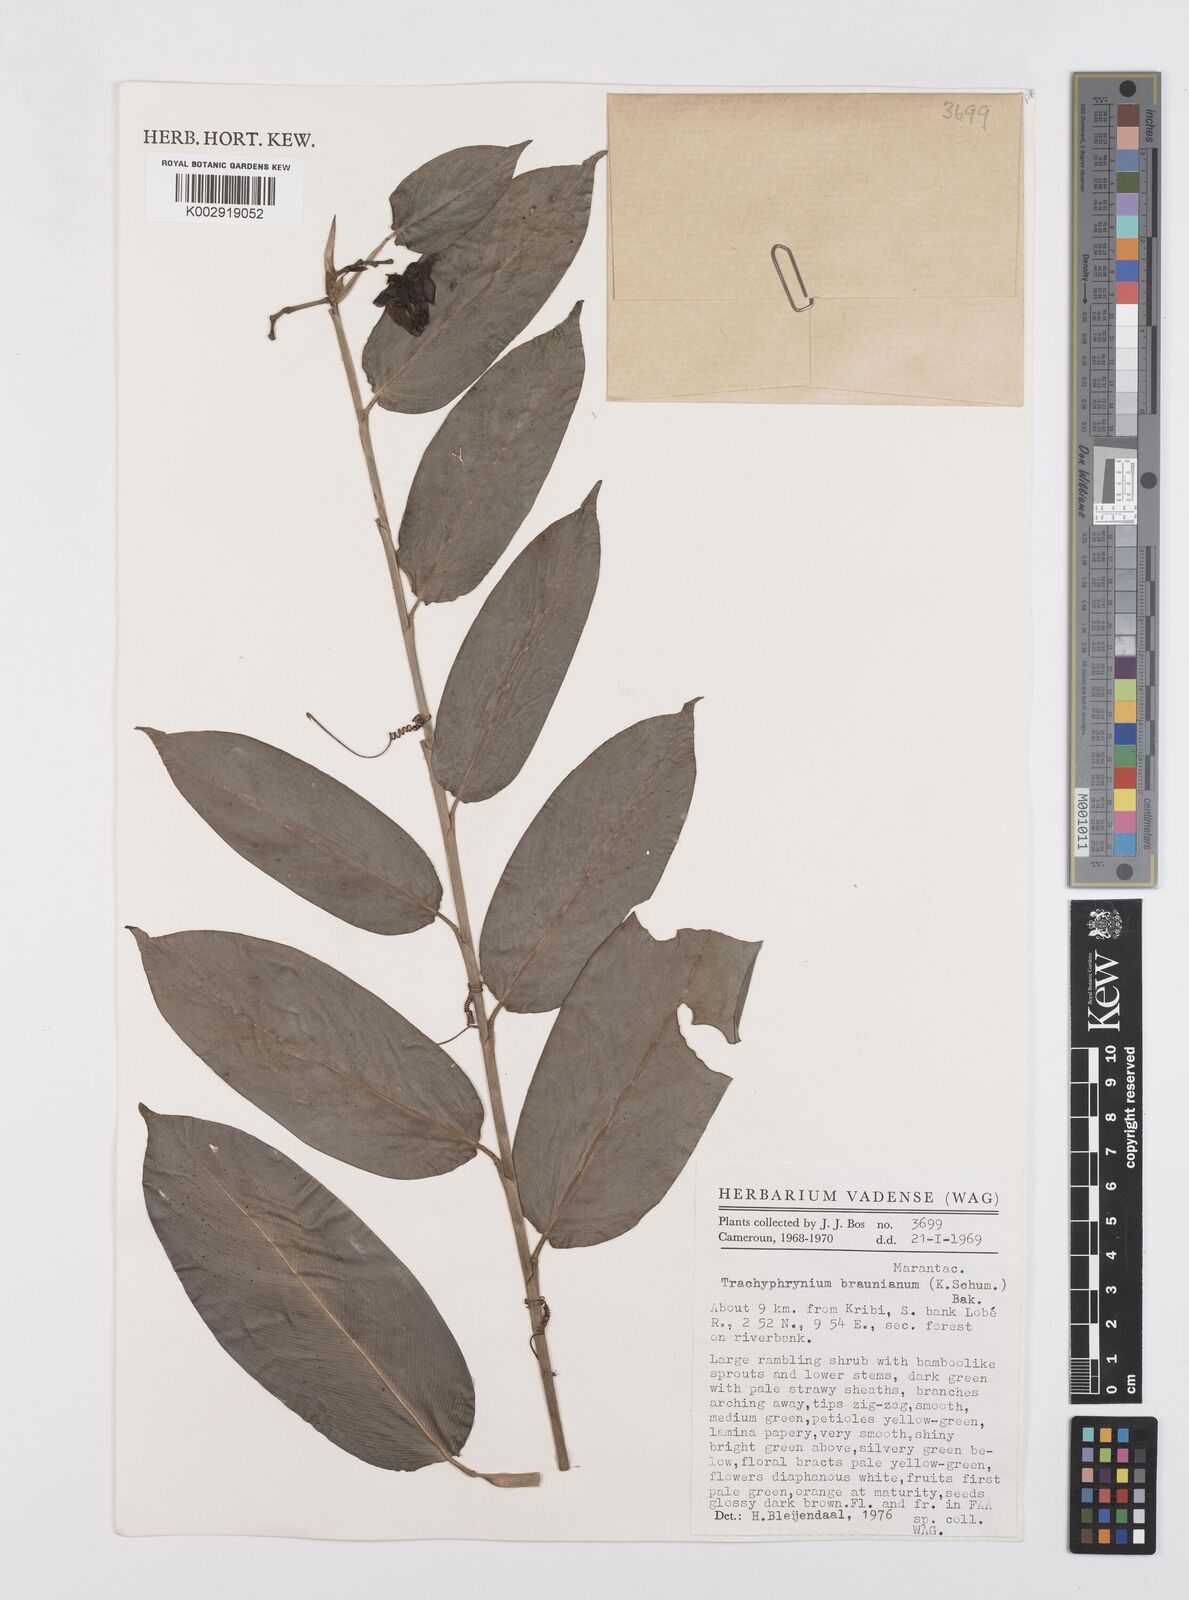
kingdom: Plantae
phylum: Tracheophyta
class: Liliopsida
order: Zingiberales
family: Marantaceae
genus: Trachyphrynium
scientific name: Trachyphrynium braunianum
